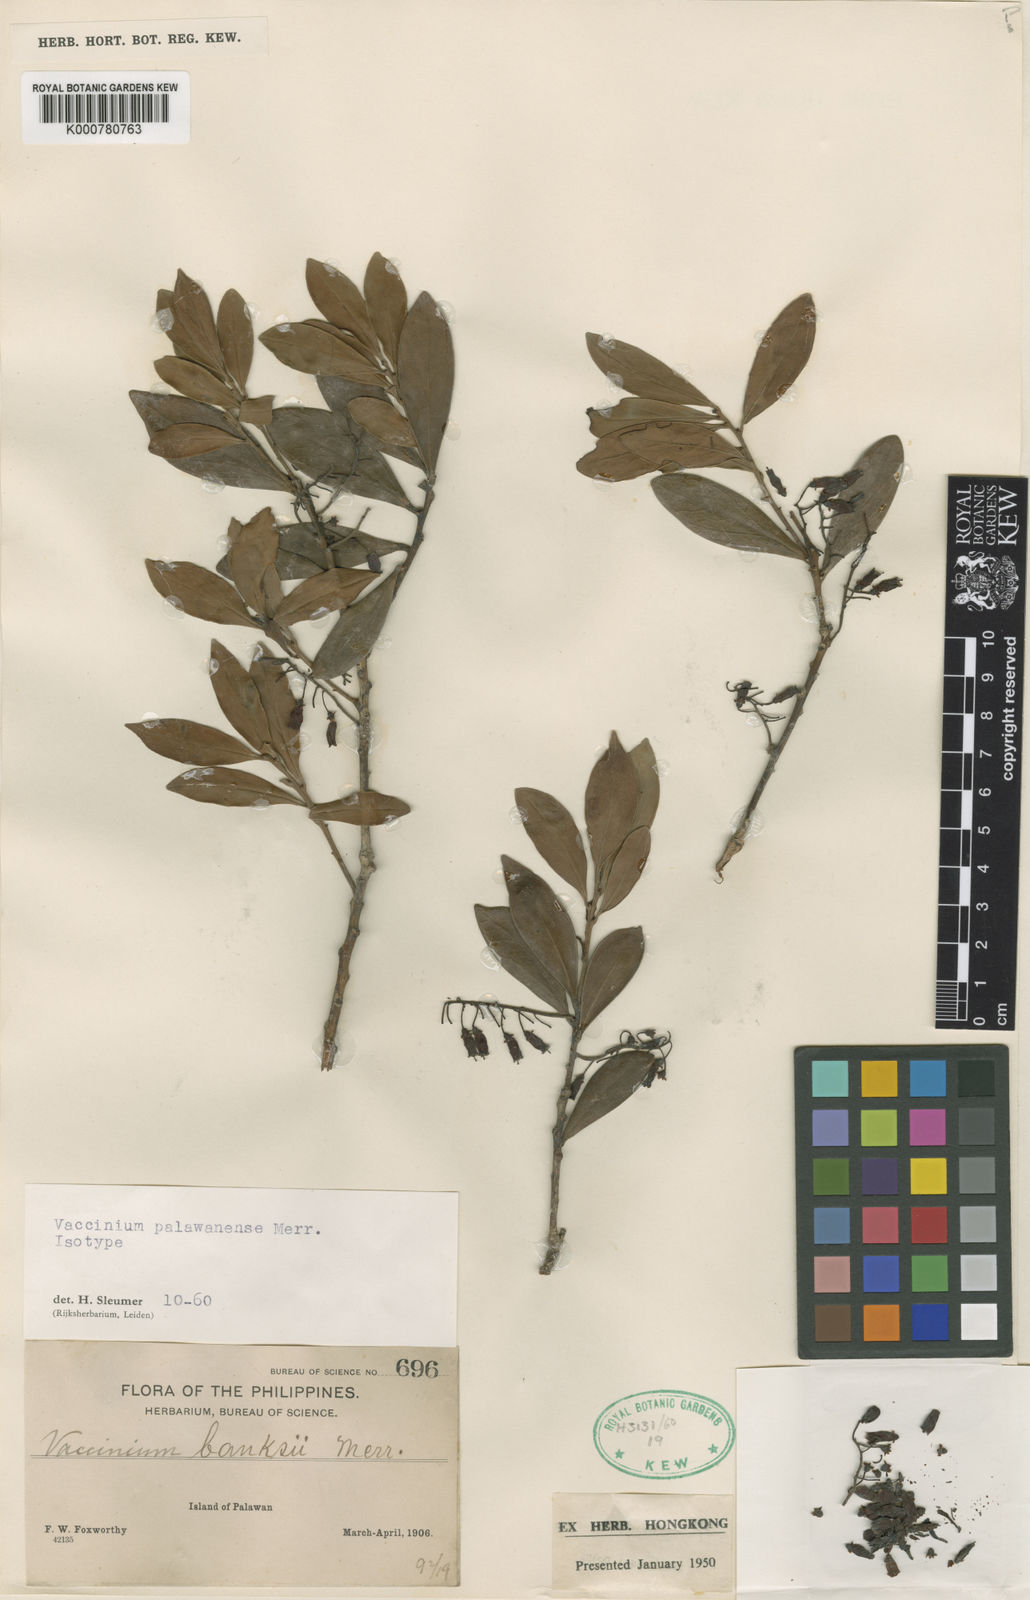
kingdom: Plantae
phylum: Tracheophyta
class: Magnoliopsida
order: Ericales
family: Ericaceae
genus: Vaccinium
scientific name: Vaccinium palawanense
